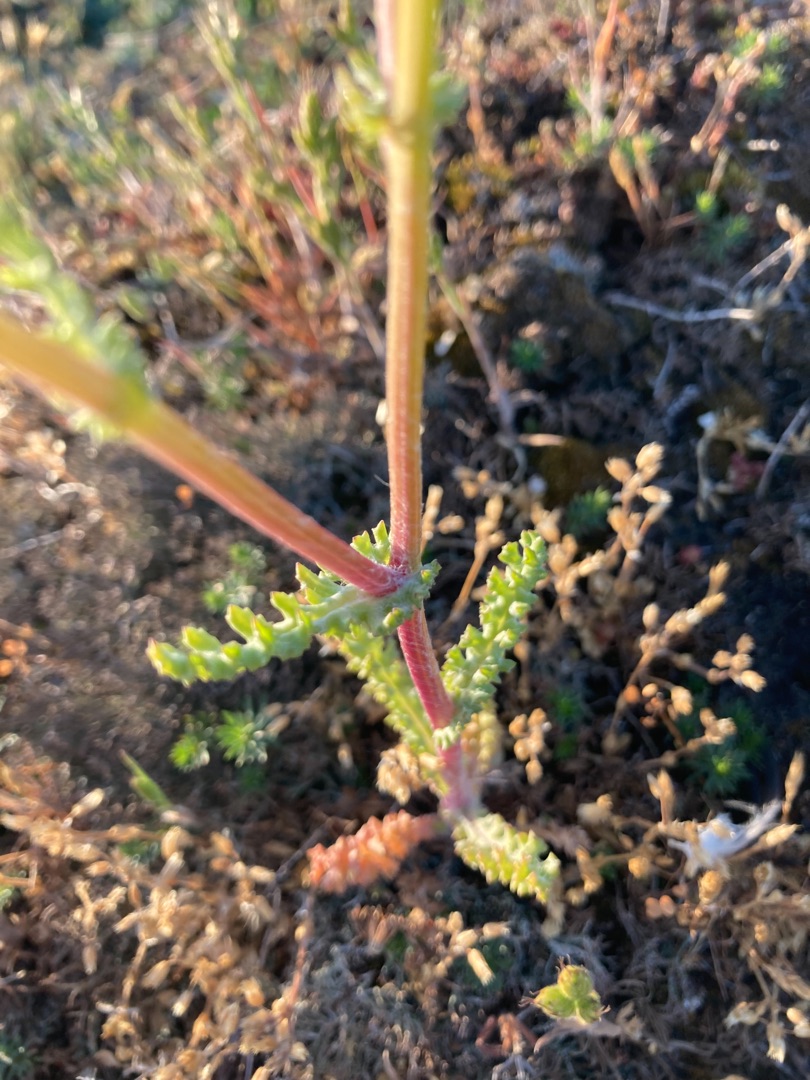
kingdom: Plantae
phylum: Tracheophyta
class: Magnoliopsida
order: Asterales
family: Asteraceae
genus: Senecio
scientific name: Senecio leucanthemifolius
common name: Vår-brandbæger
